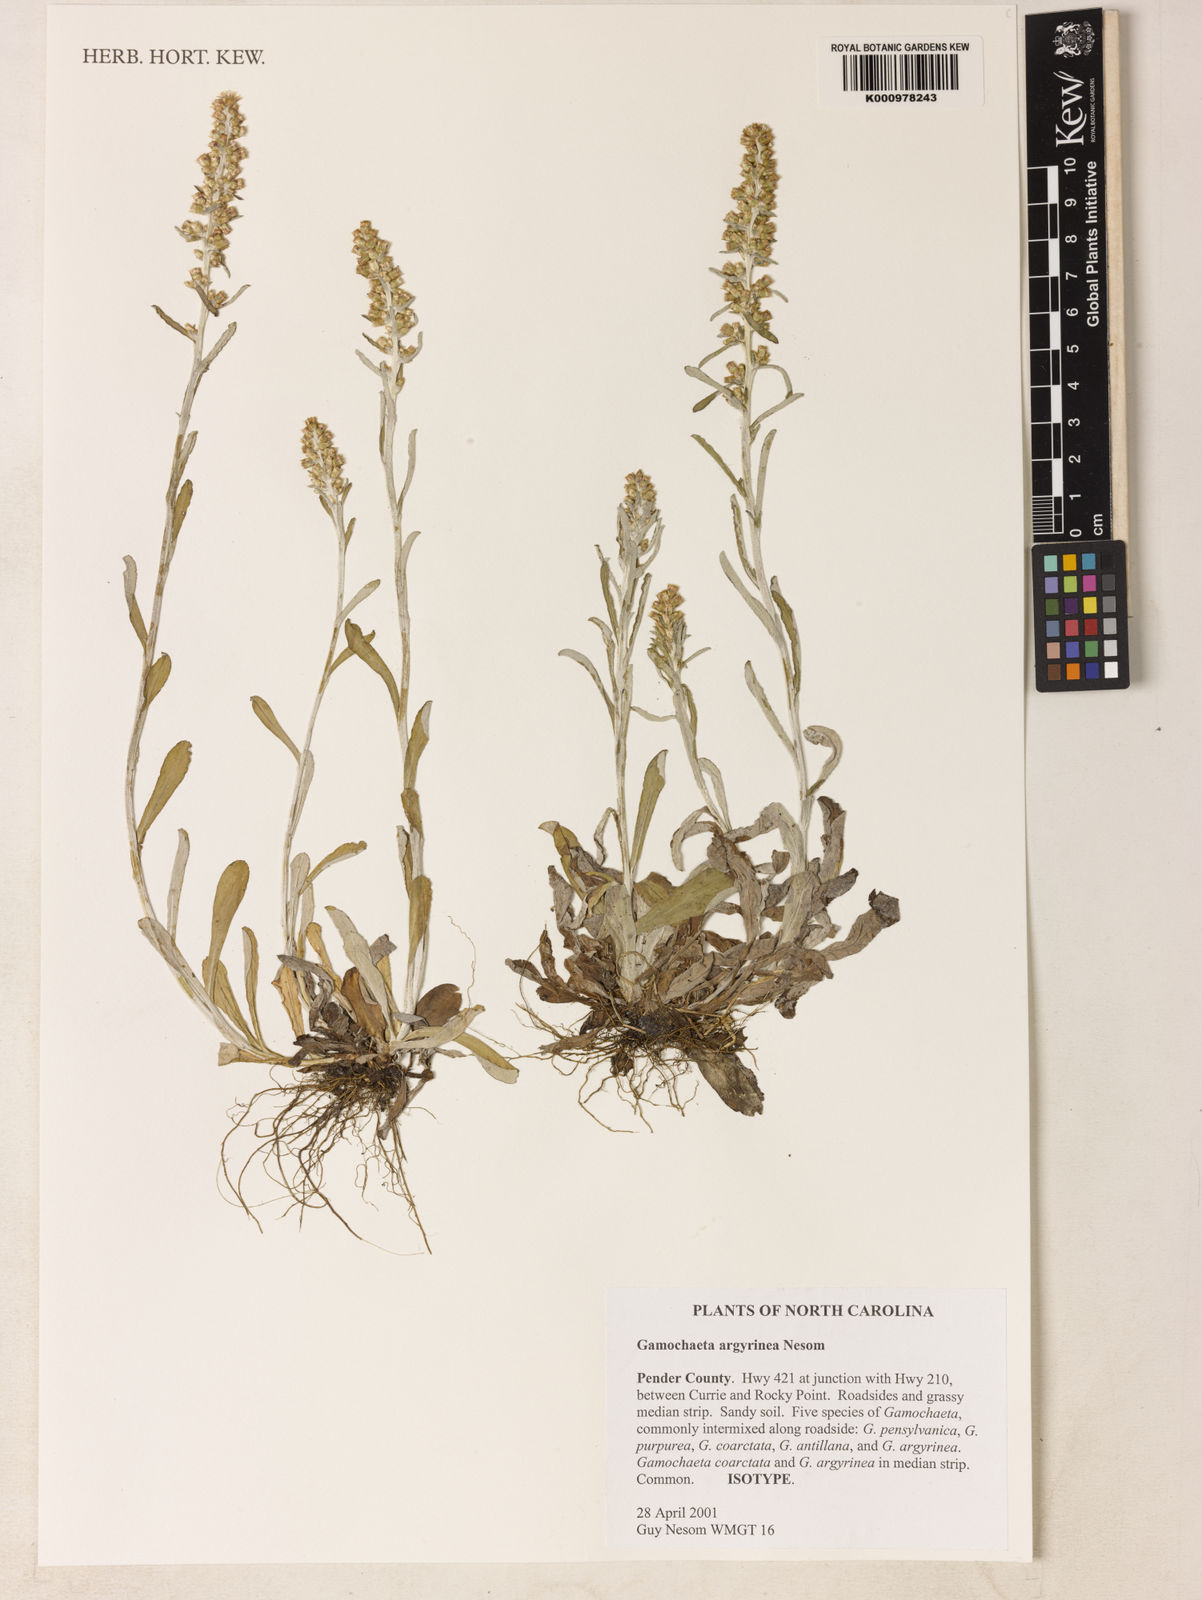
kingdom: Plantae
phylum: Tracheophyta
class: Magnoliopsida
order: Asterales
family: Asteraceae
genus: Gamochaeta
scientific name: Gamochaeta argyrinea
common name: Silvery cudweed
